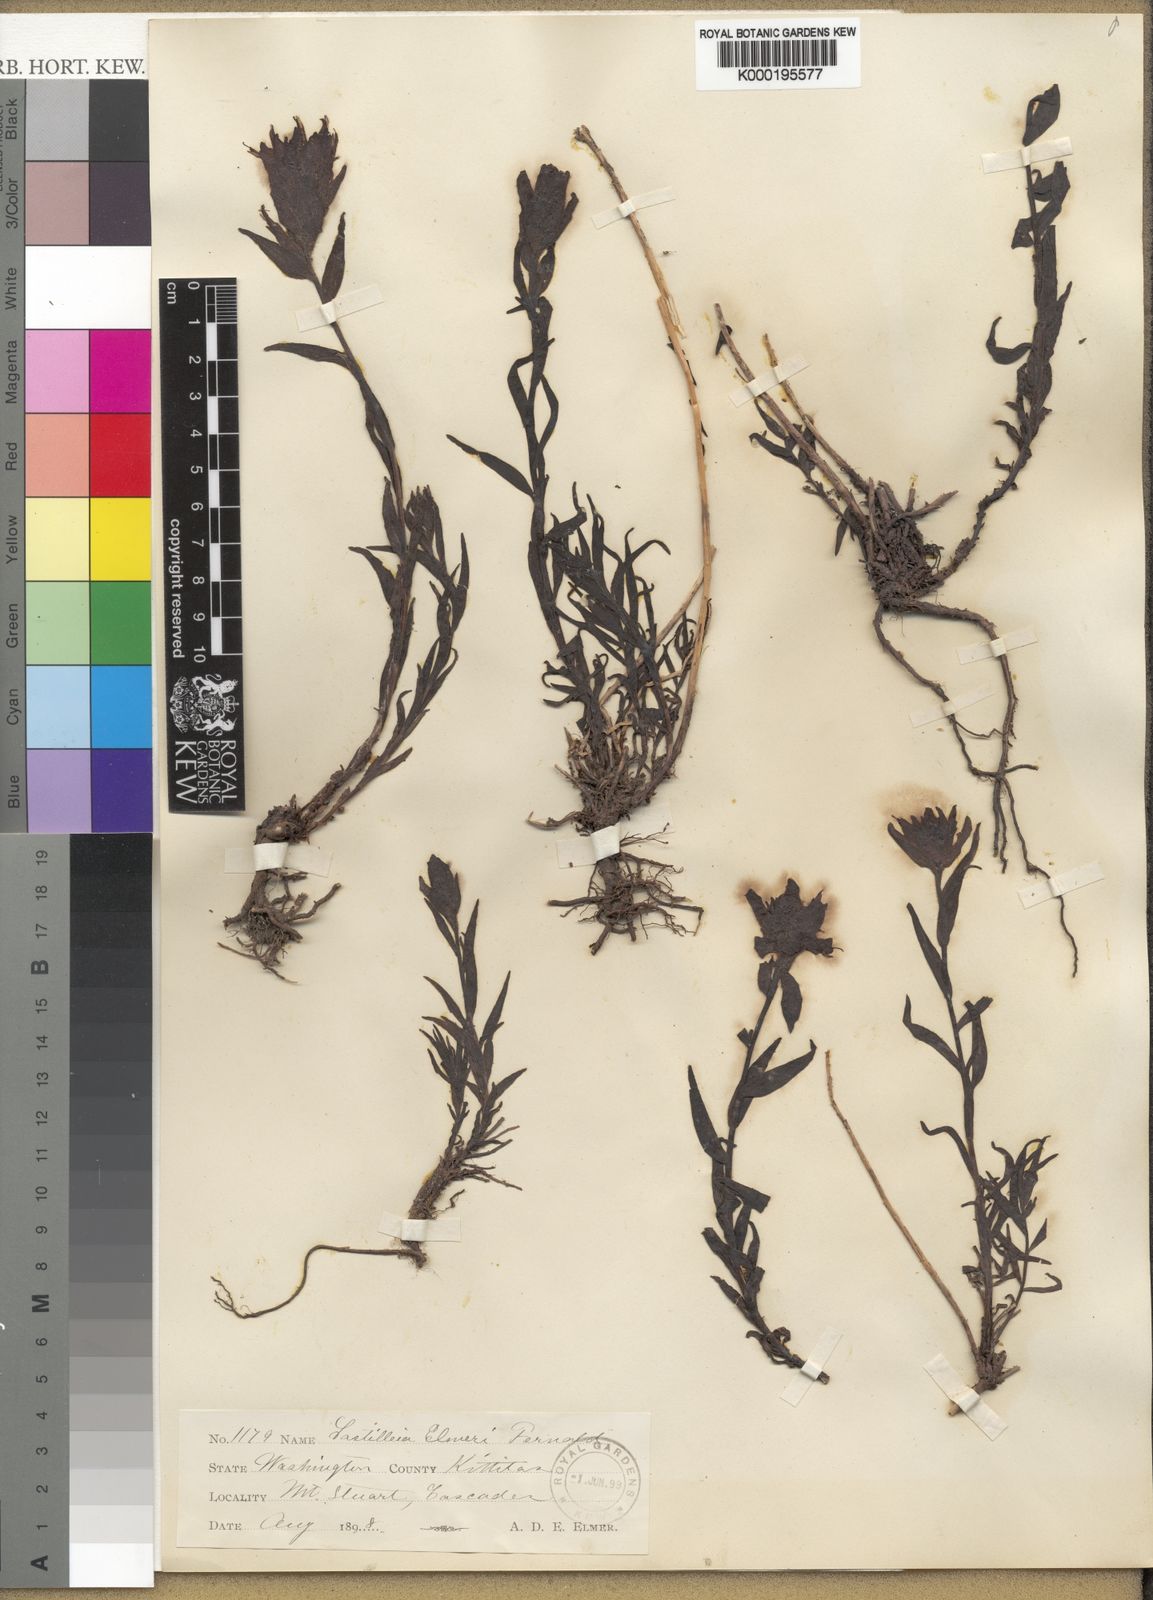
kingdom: Plantae
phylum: Tracheophyta
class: Magnoliopsida
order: Lamiales
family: Orobanchaceae
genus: Castilleja
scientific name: Castilleja elmeri
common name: Elmer's paintbrush
